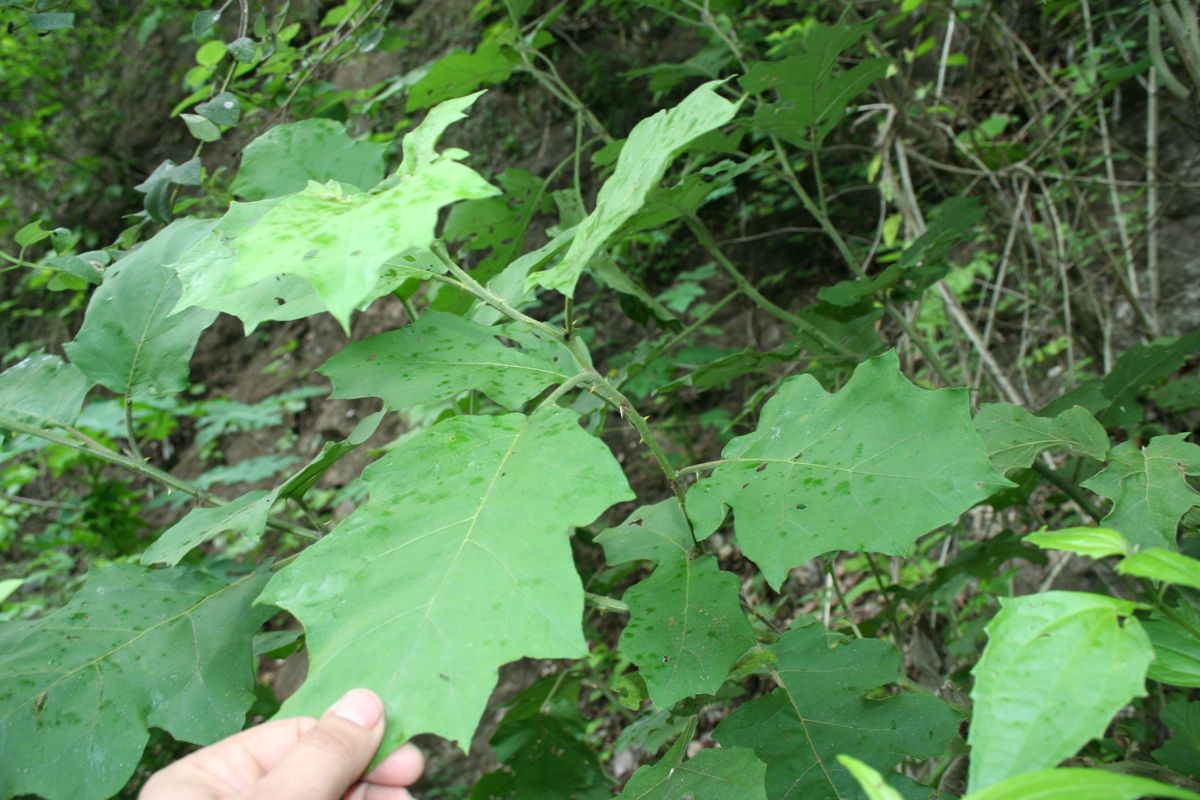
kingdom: Plantae
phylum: Tracheophyta
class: Magnoliopsida
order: Solanales
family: Solanaceae
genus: Solanum
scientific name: Solanum torvum
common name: Turkey berry
